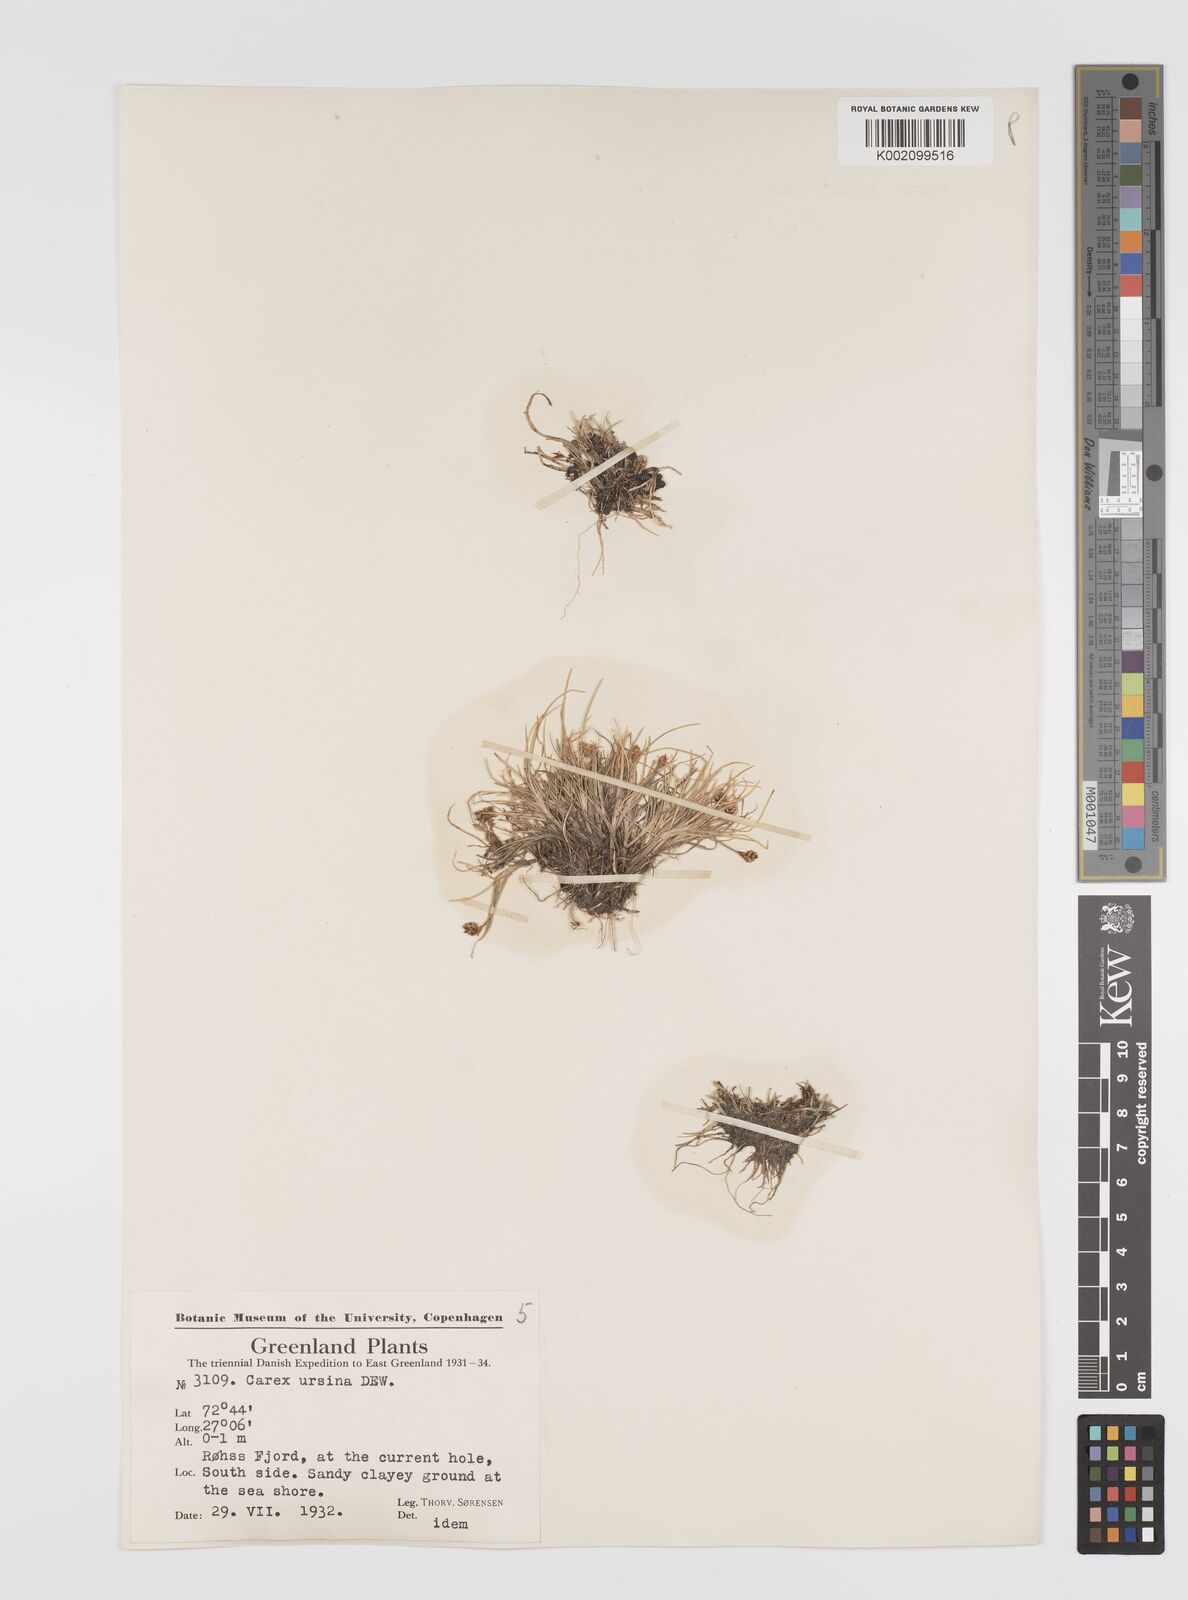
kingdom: Plantae
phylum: Tracheophyta
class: Liliopsida
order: Poales
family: Cyperaceae
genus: Carex
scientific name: Carex ursina
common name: Bear sedge
